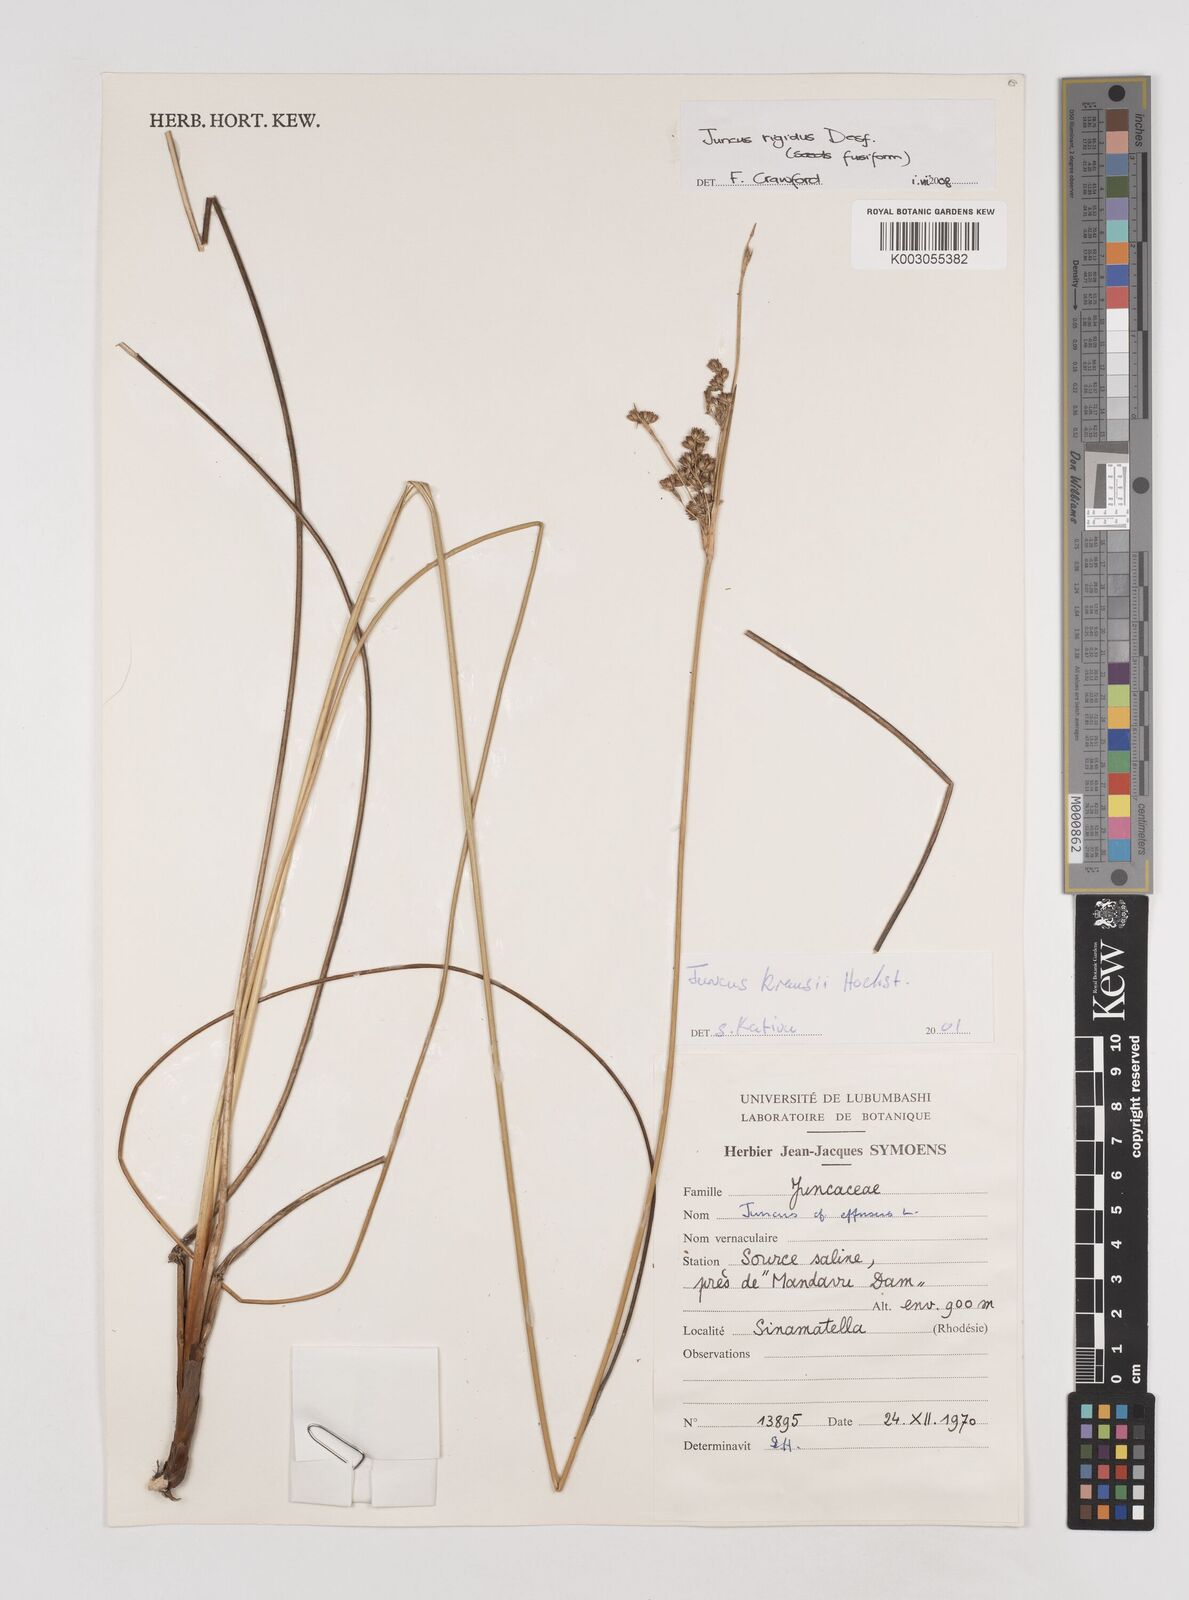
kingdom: Plantae
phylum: Tracheophyta
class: Liliopsida
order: Poales
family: Juncaceae
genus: Juncus
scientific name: Juncus rigidus
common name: Hard sea rush
